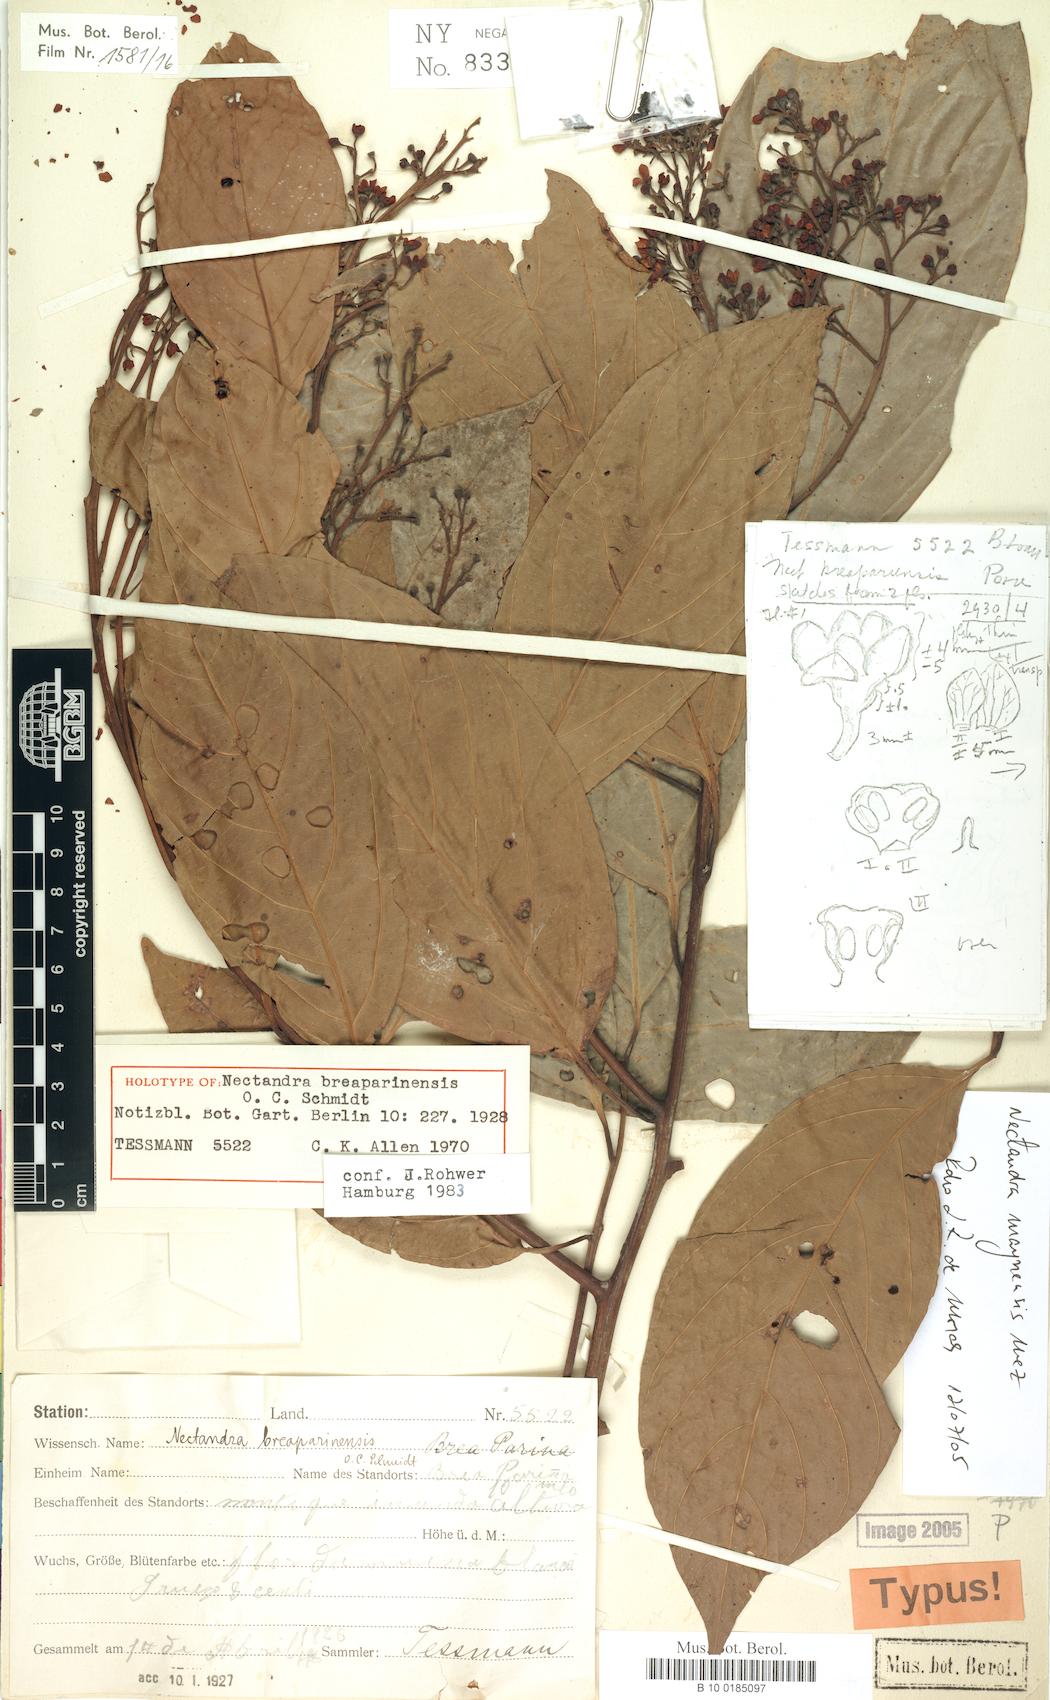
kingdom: Plantae
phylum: Tracheophyta
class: Magnoliopsida
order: Laurales
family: Lauraceae
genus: Nectandra
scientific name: Nectandra maynensis
